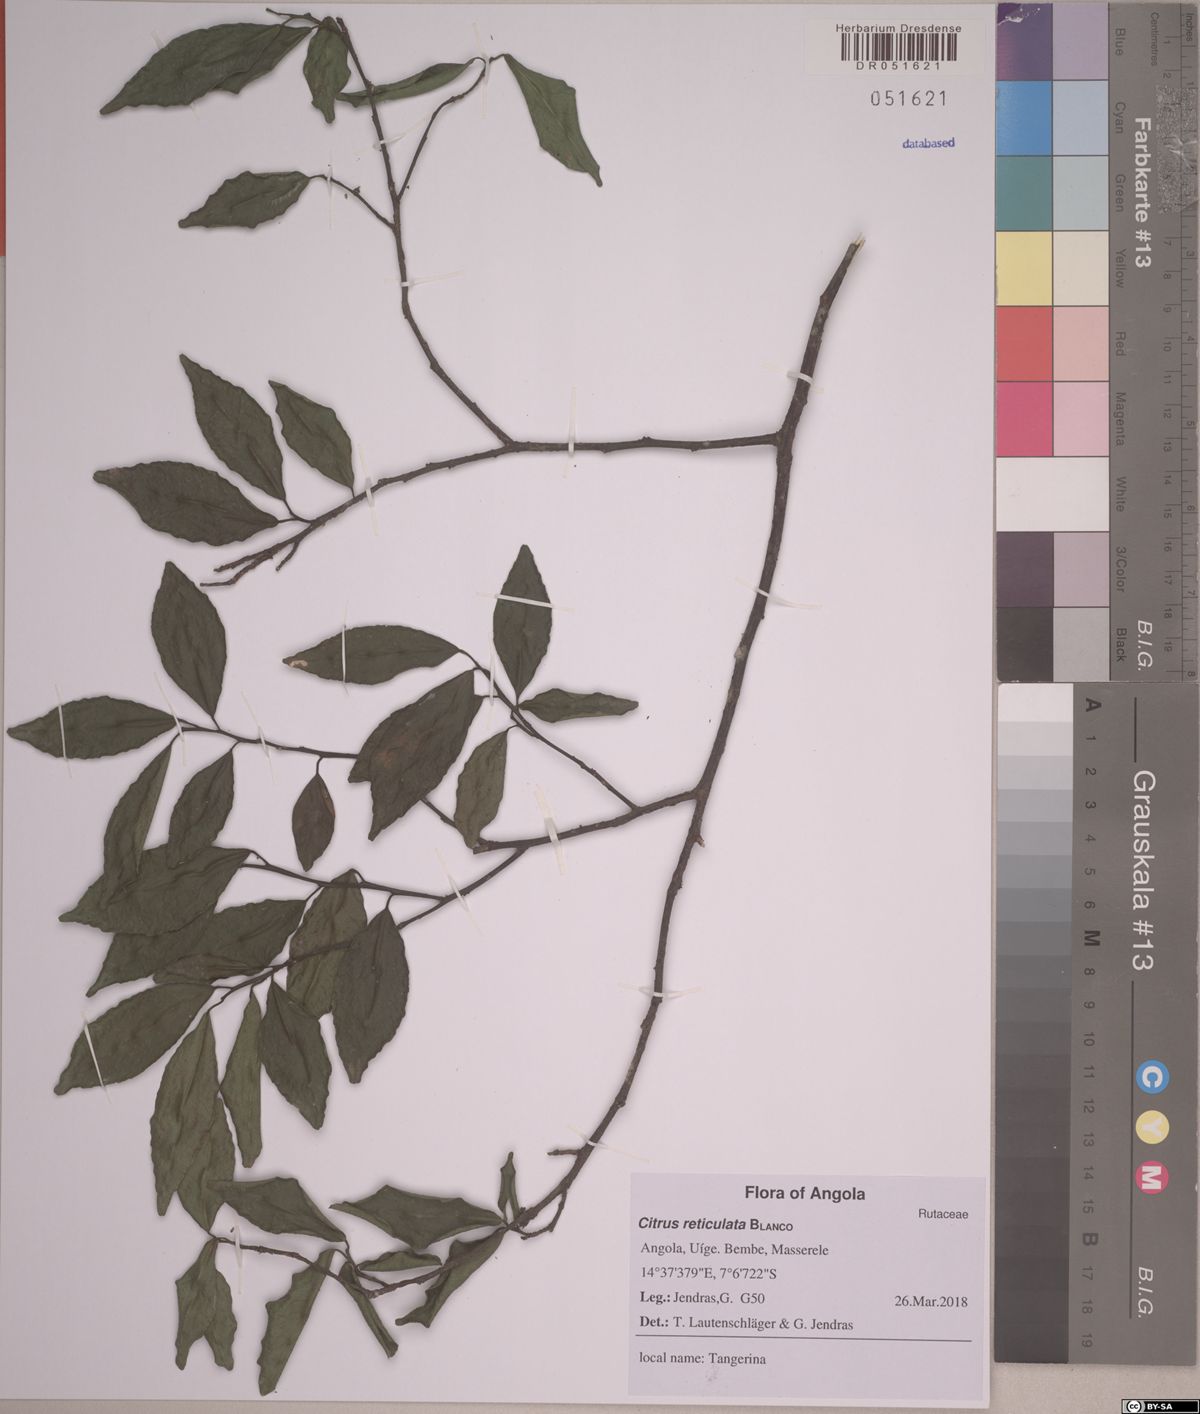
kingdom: Plantae
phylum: Tracheophyta
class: Magnoliopsida
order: Sapindales
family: Rutaceae
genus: Citrus
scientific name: Citrus reticulata
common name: Tangerine
